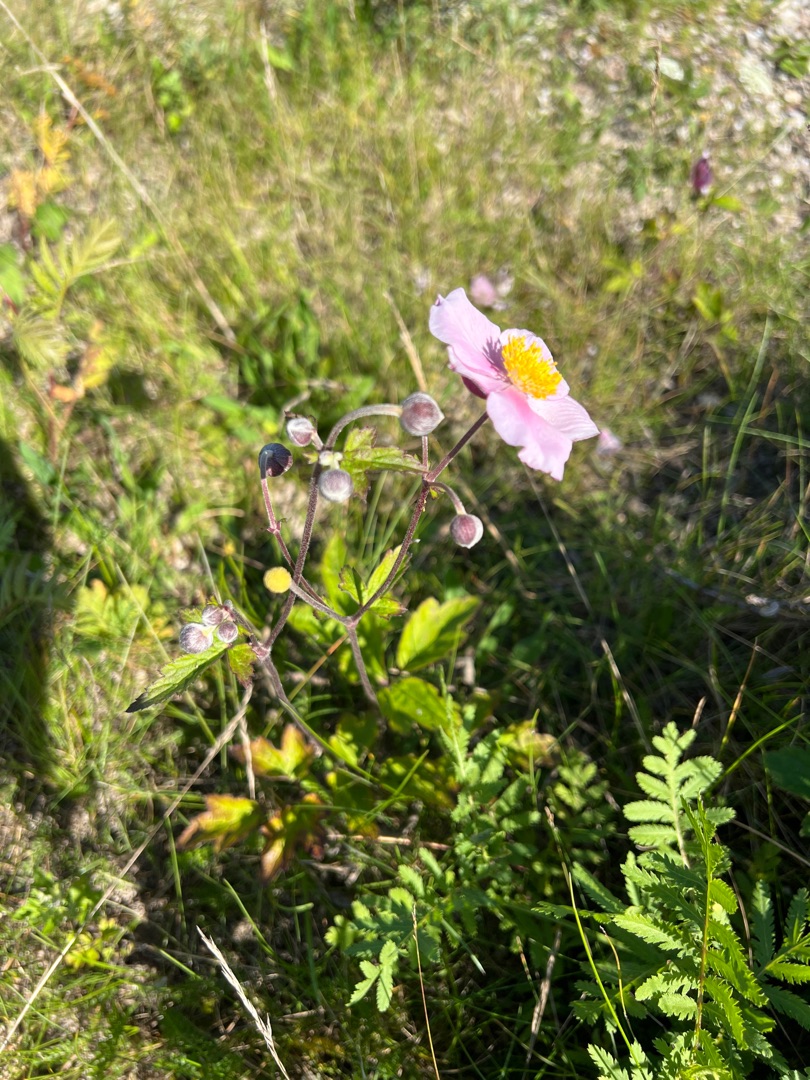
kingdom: Plantae
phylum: Tracheophyta
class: Magnoliopsida
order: Ranunculales
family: Ranunculaceae
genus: Eriocapitella
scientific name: Eriocapitella hupehensis
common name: Høst-anemone
